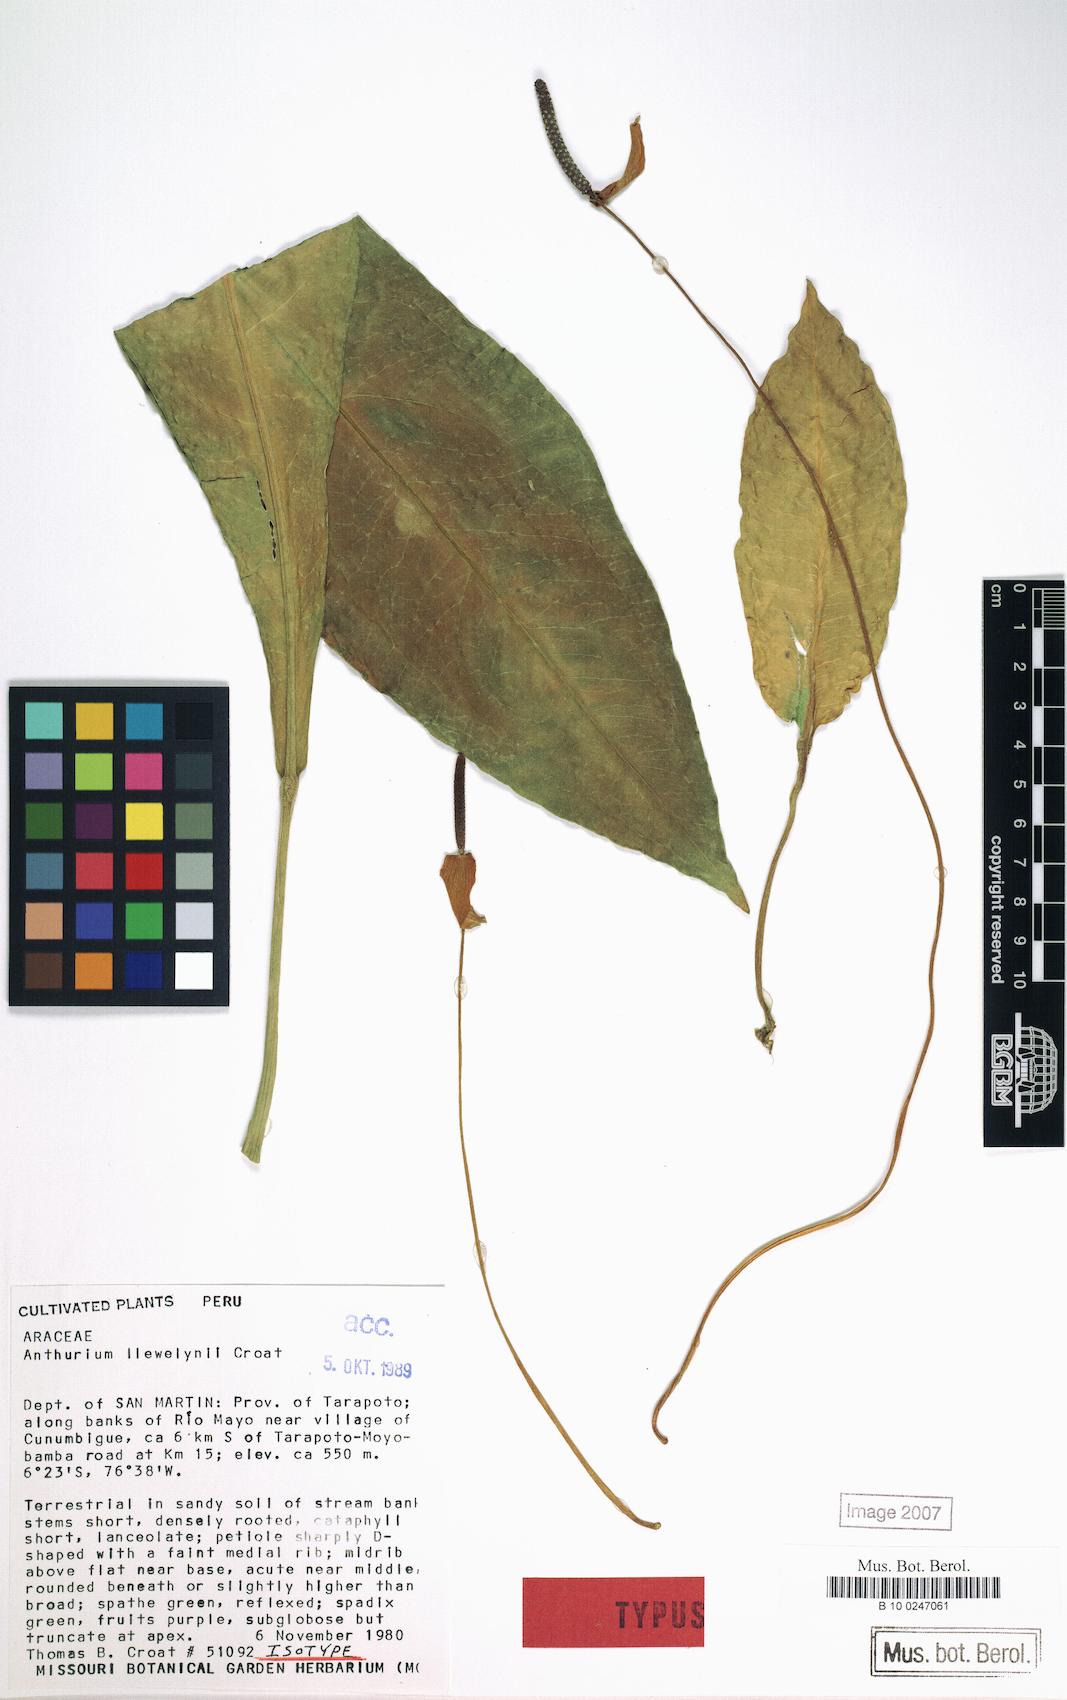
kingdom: Plantae
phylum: Tracheophyta
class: Liliopsida
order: Alismatales
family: Araceae
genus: Anthurium
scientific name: Anthurium llewellynii
